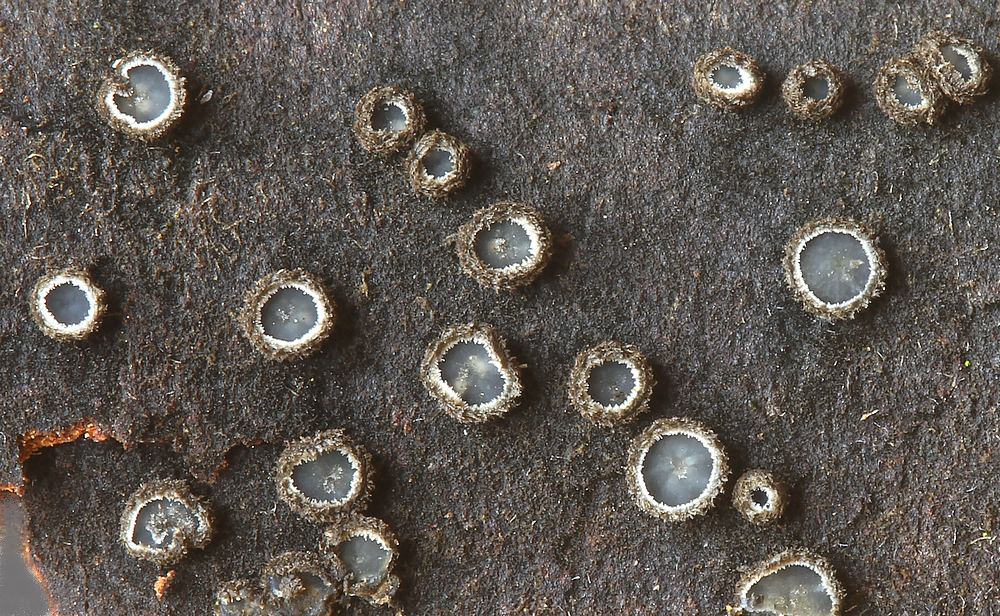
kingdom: Fungi
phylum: Ascomycota
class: Leotiomycetes
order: Helotiales
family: Mollisiaceae
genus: Tapesia
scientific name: Tapesia villosa
